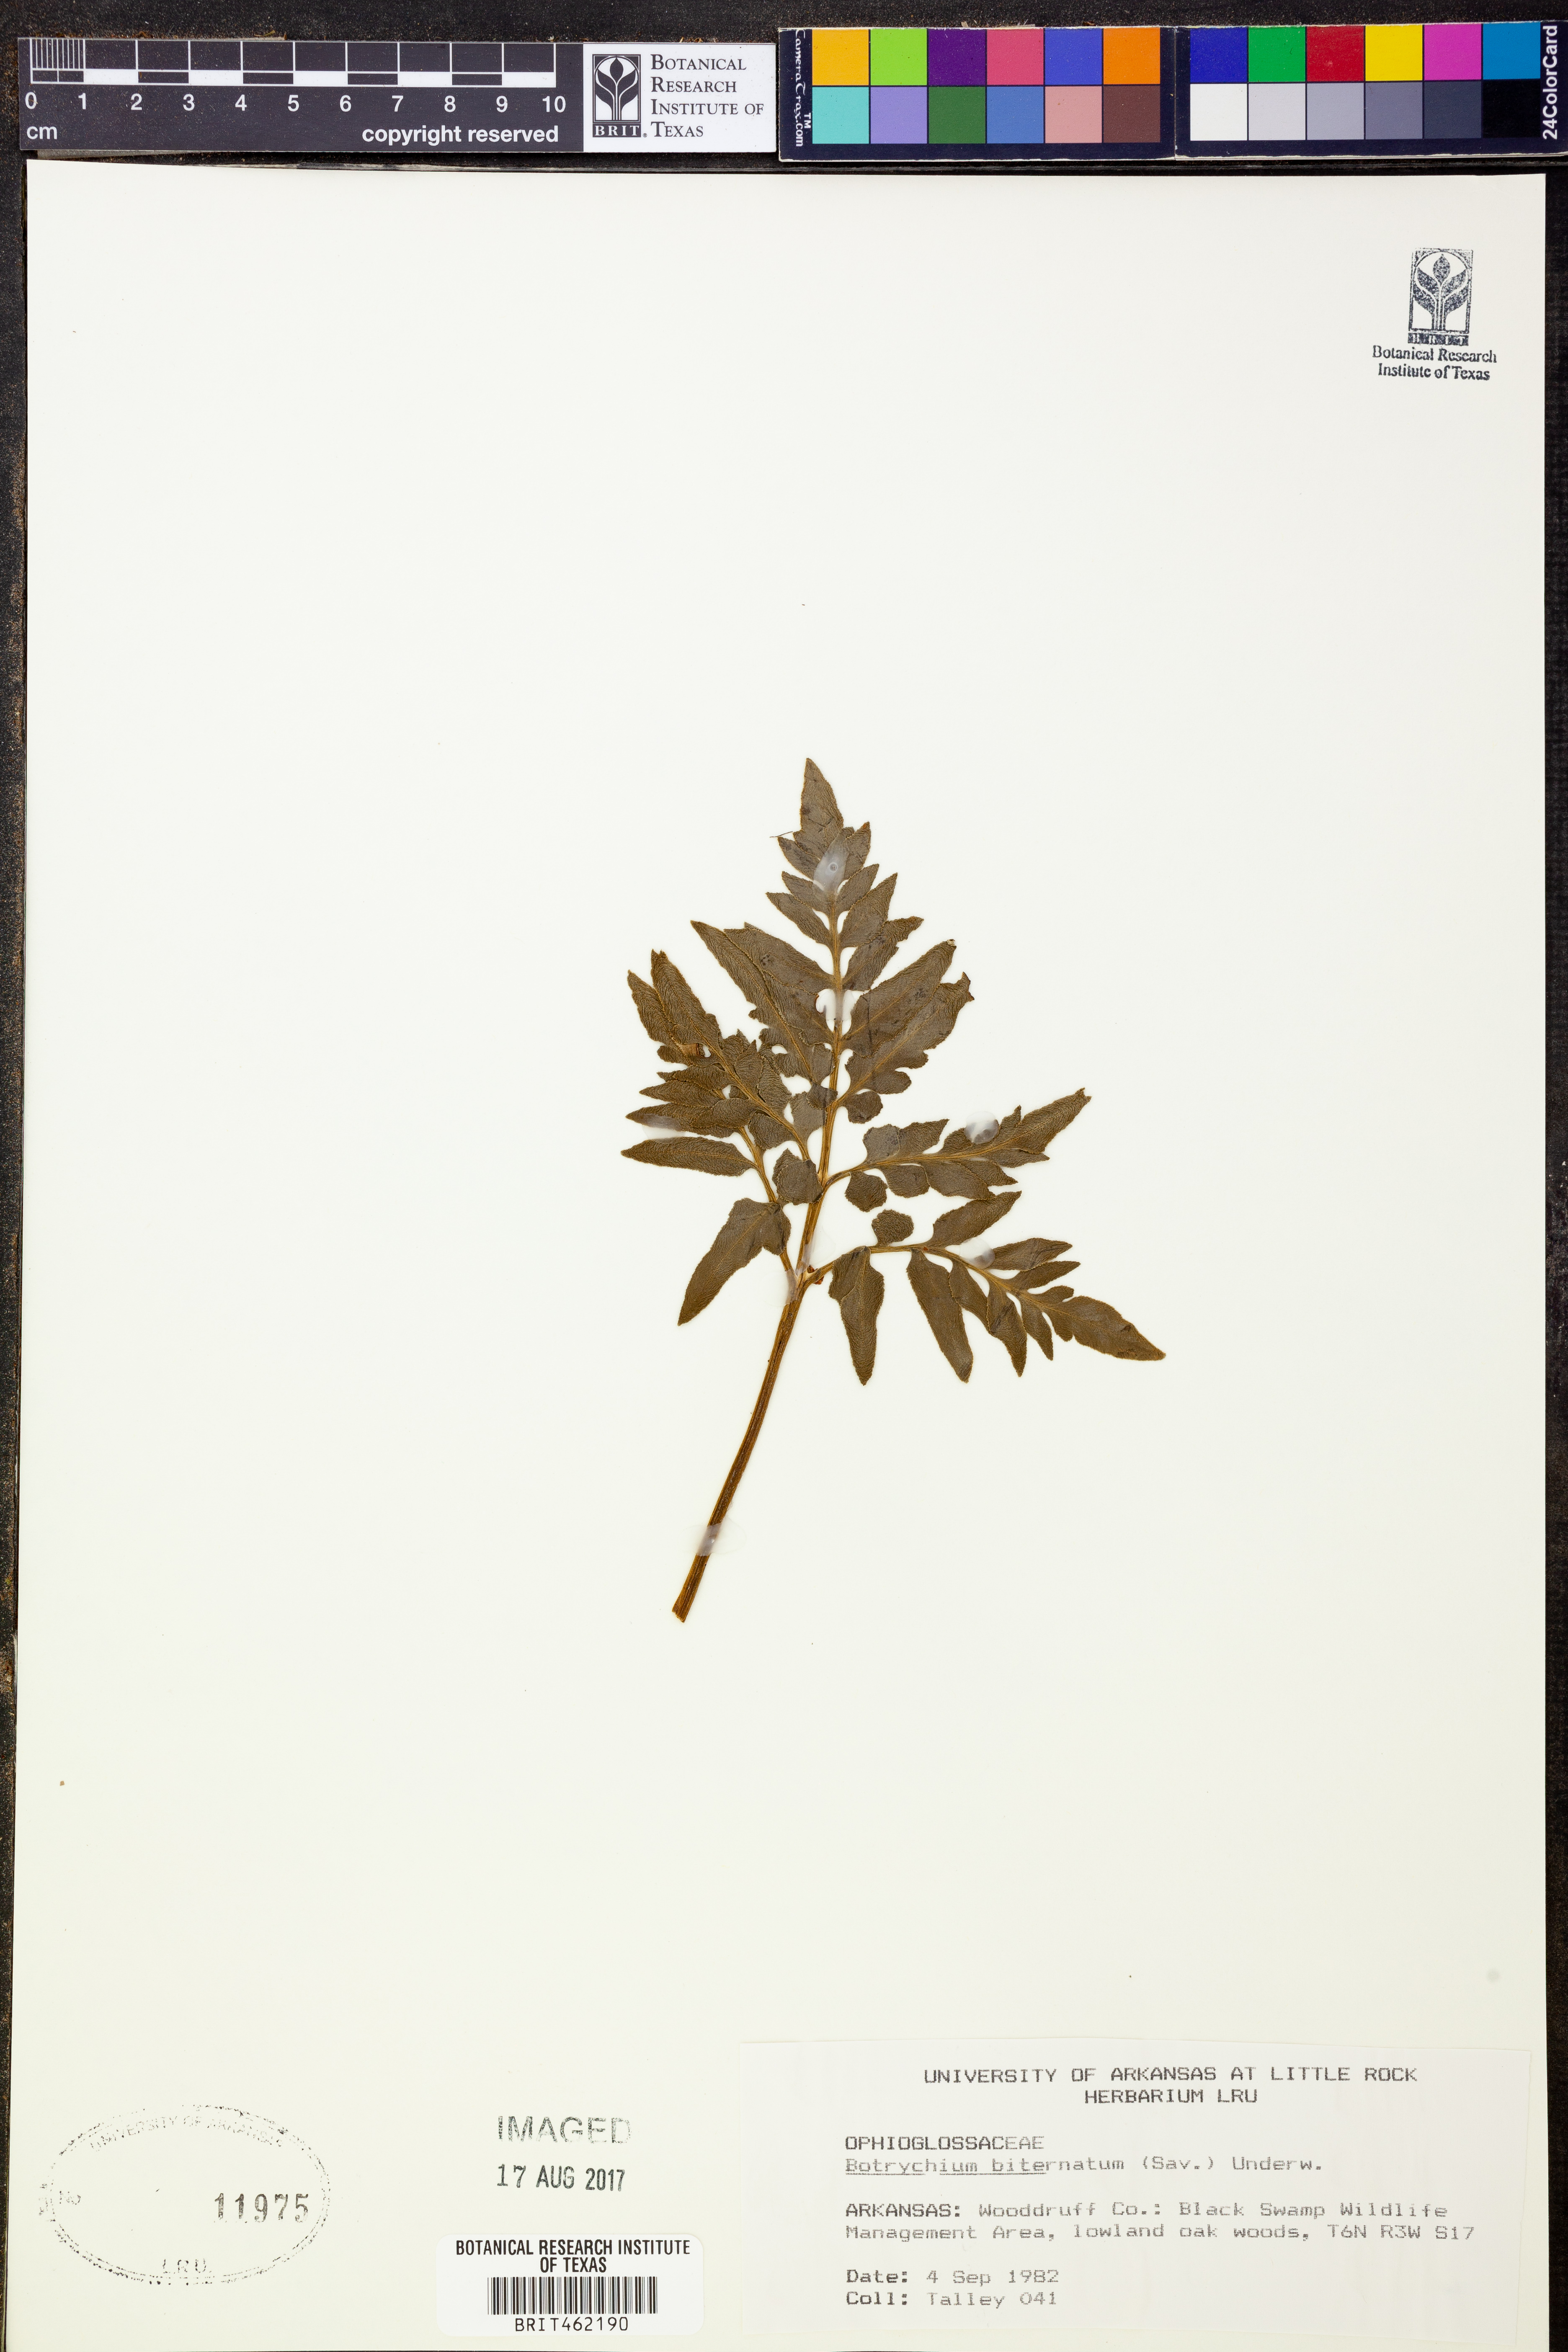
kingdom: Plantae
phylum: Tracheophyta
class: Polypodiopsida
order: Ophioglossales
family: Ophioglossaceae
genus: Sceptridium
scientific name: Sceptridium biternatum
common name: Sparse-lobed grapefern
